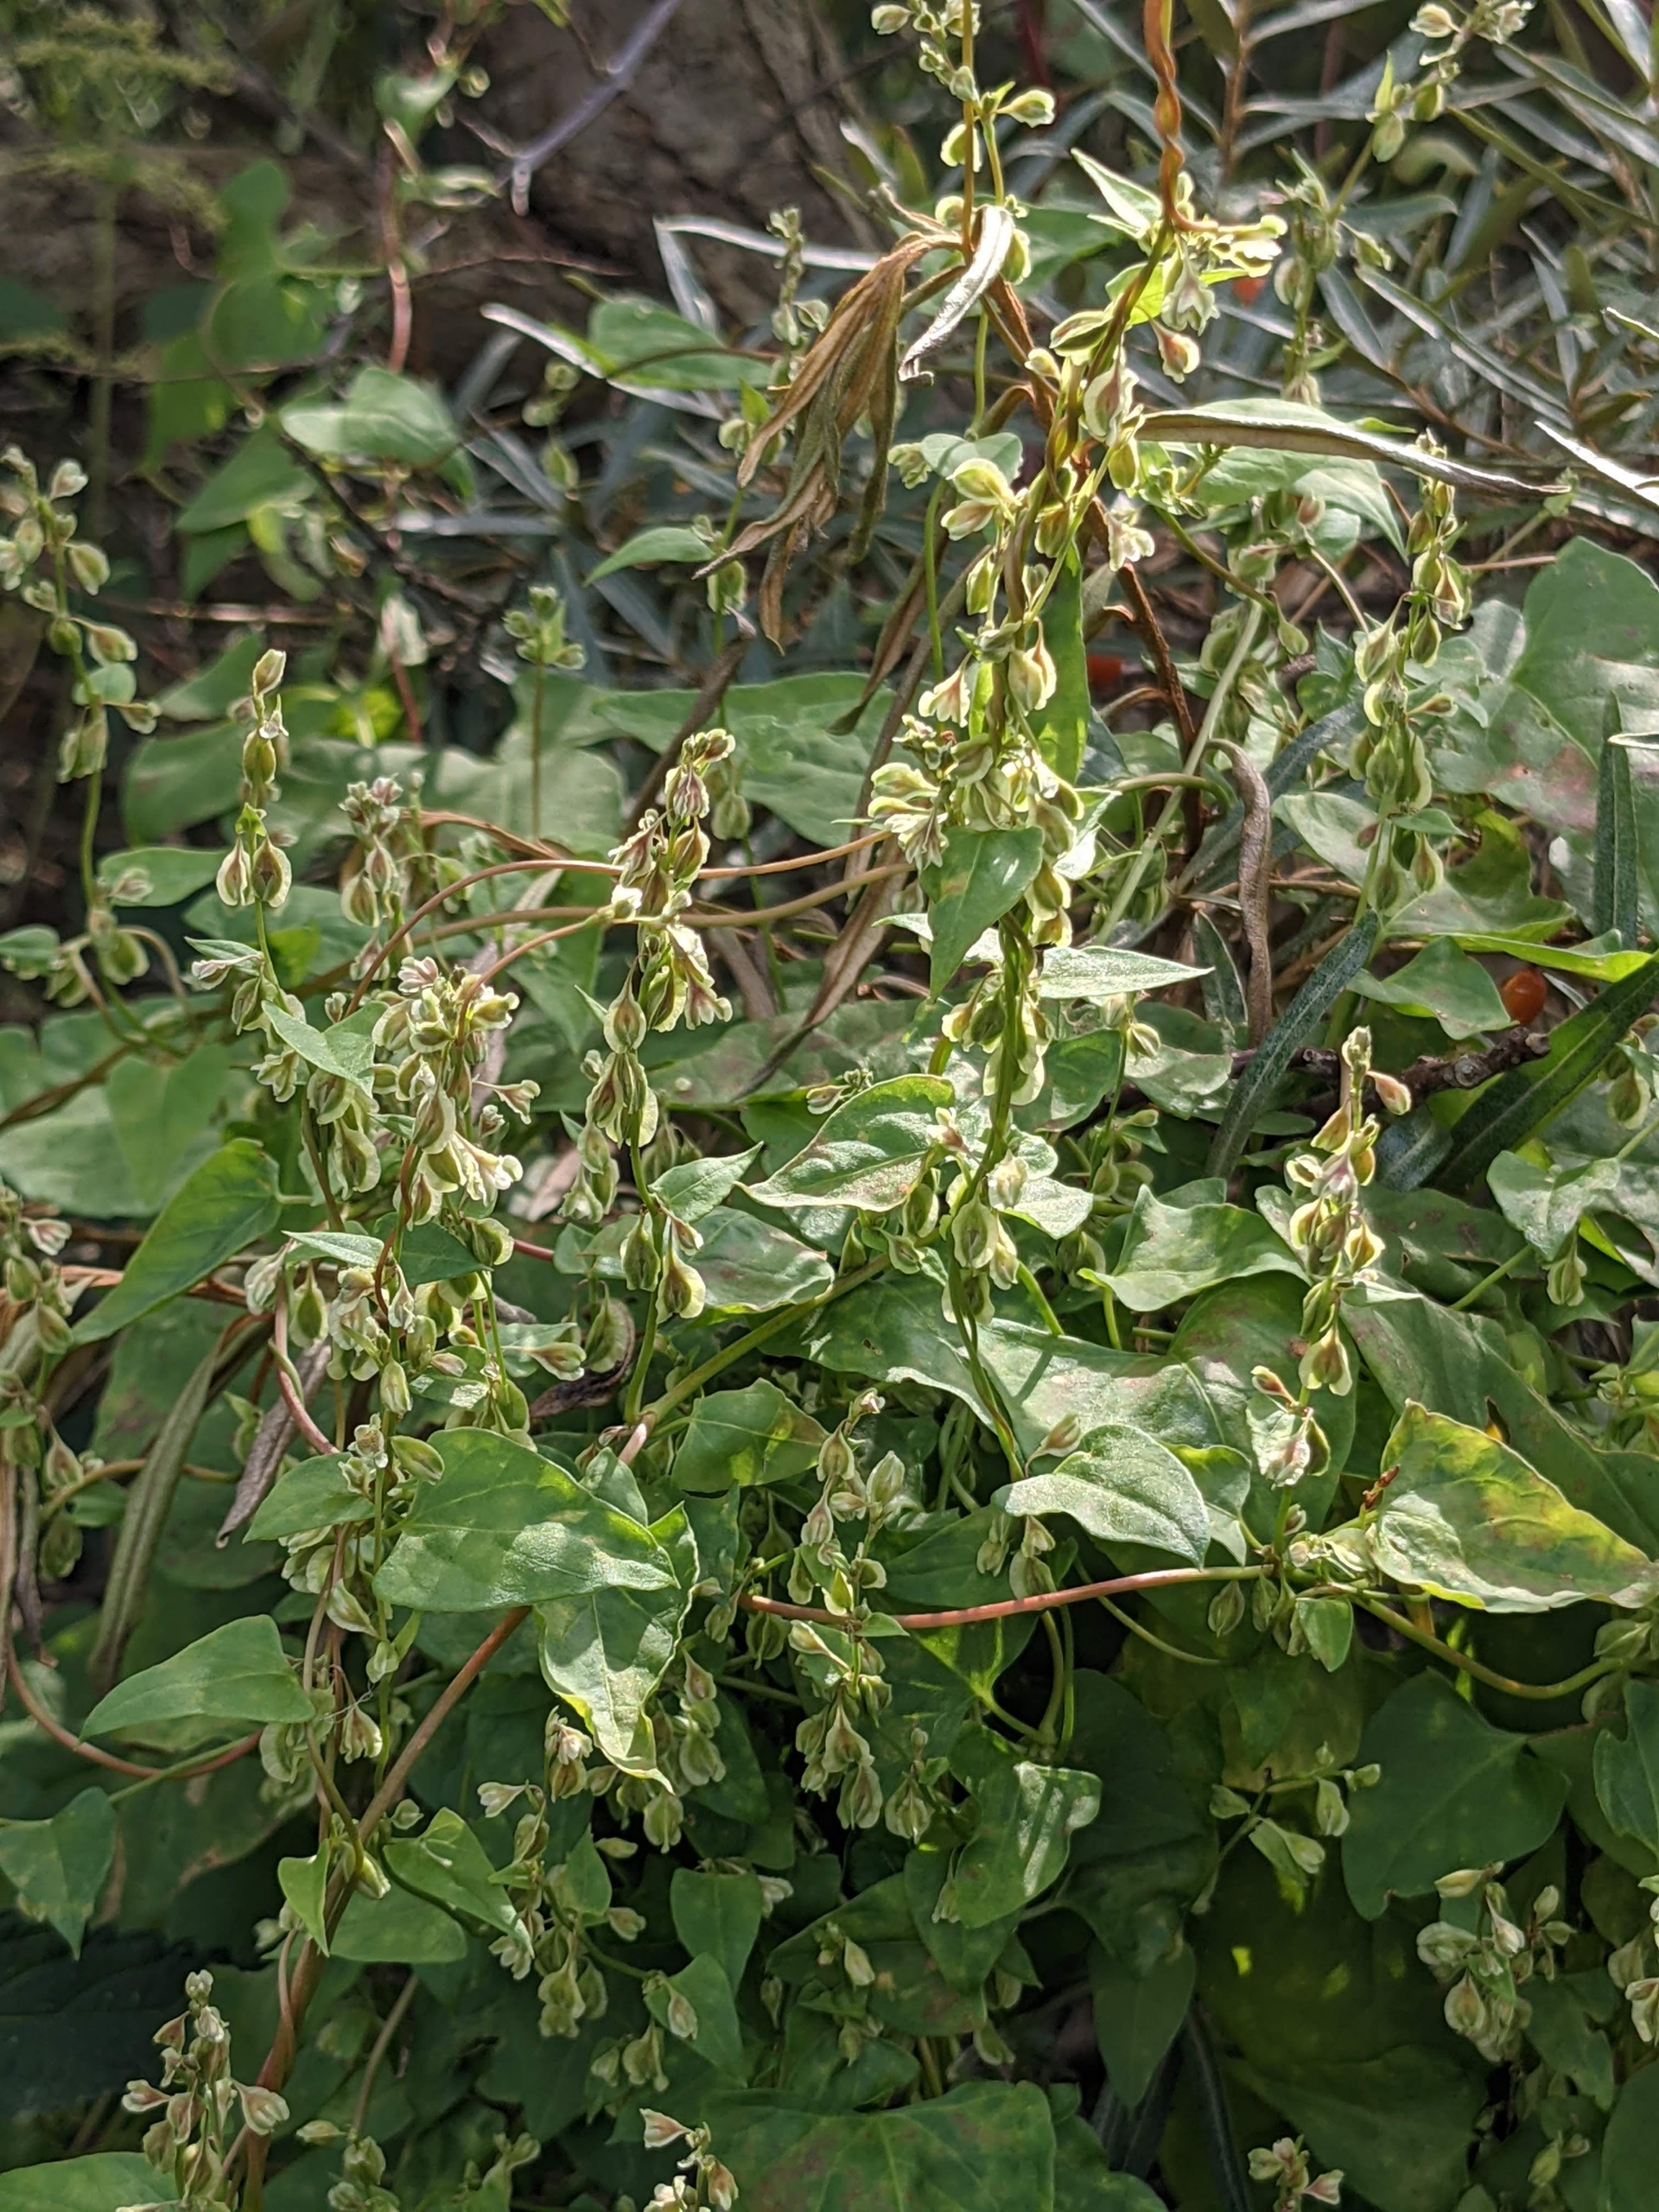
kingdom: Plantae
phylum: Tracheophyta
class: Magnoliopsida
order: Caryophyllales
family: Polygonaceae
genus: Fallopia
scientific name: Fallopia dumetorum
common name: Vinge-pileurt
